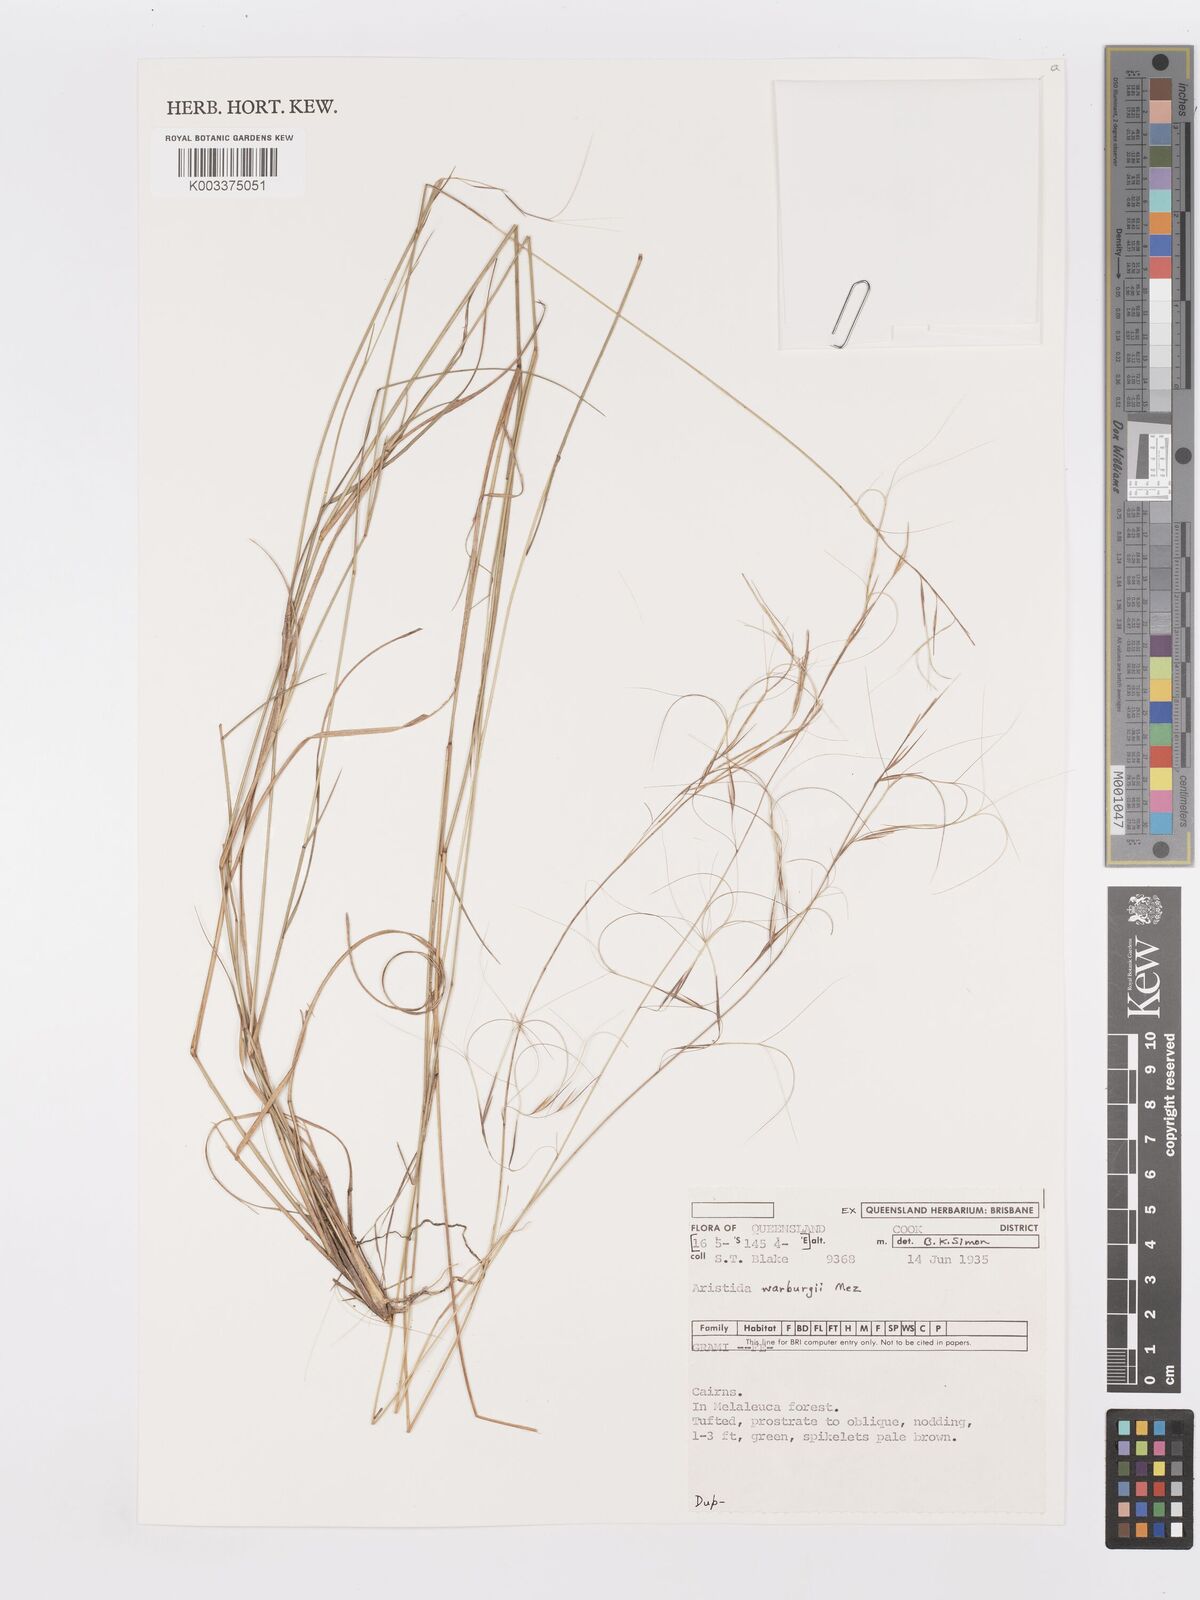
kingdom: Plantae
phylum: Tracheophyta
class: Liliopsida
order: Poales
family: Poaceae
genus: Aristida
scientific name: Aristida warburgii
